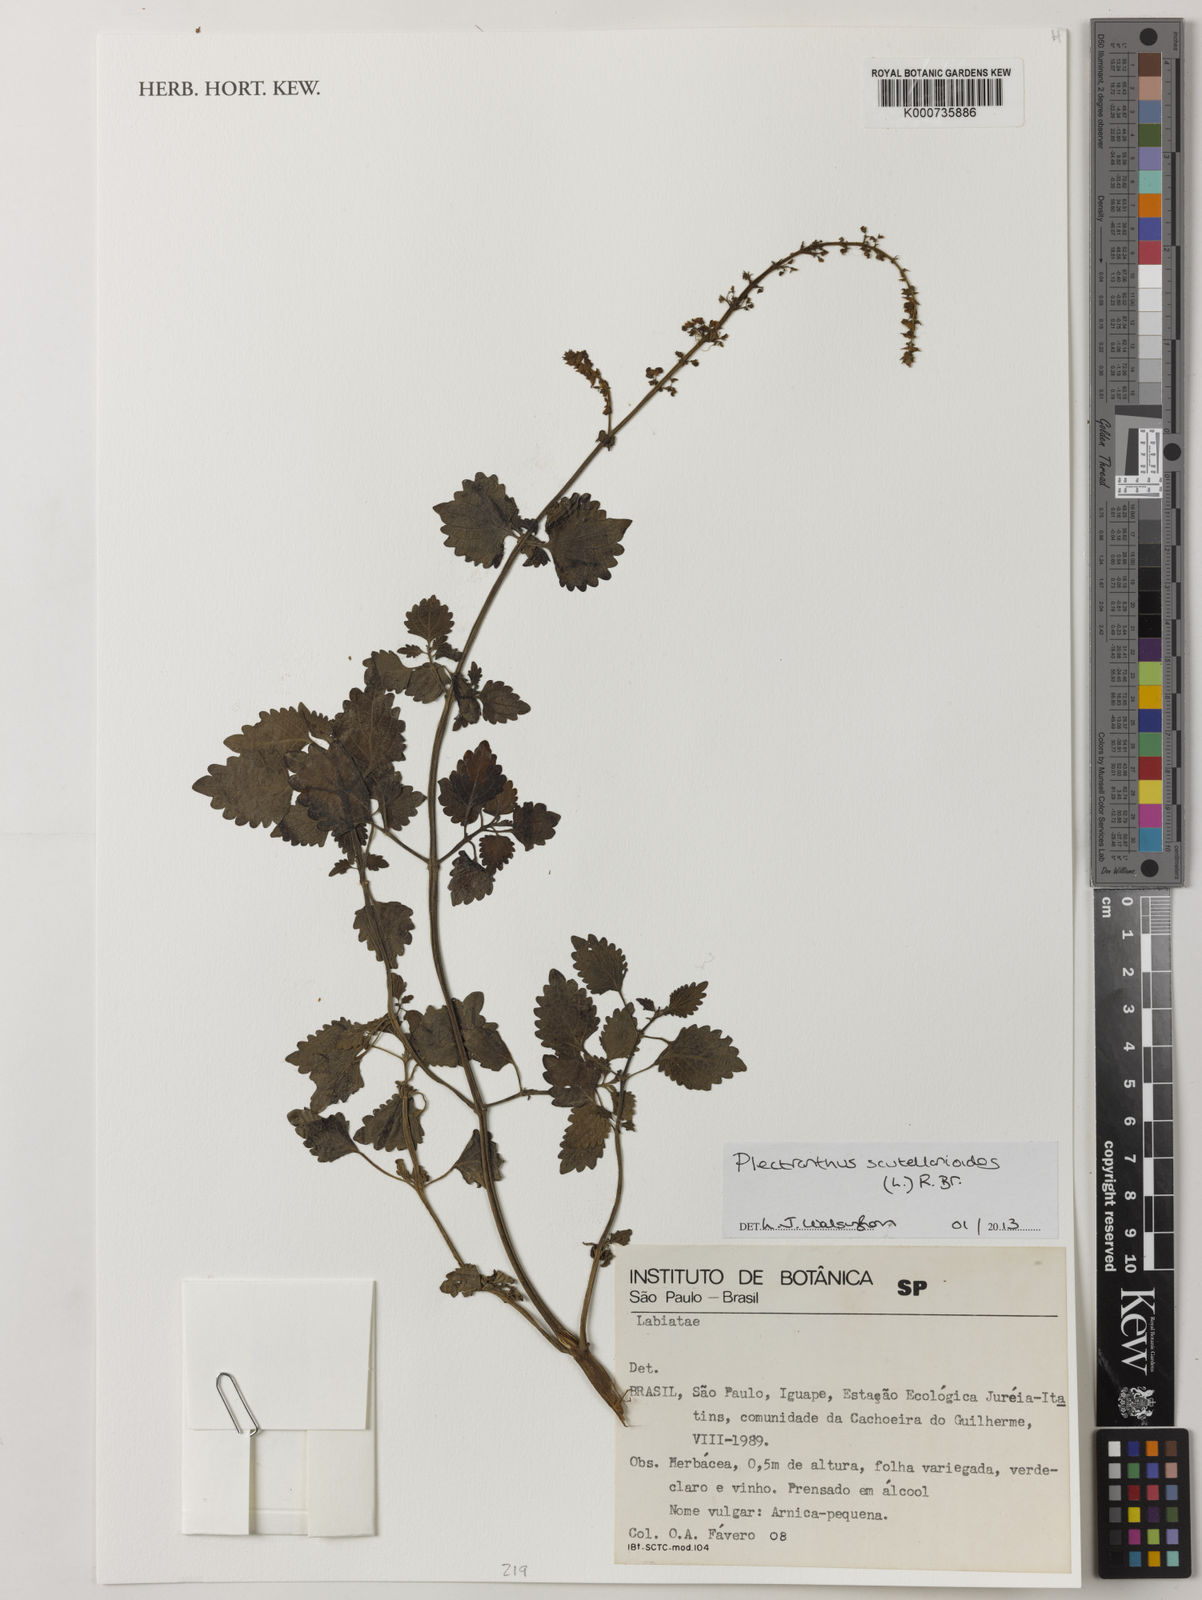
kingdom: Plantae
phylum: Tracheophyta
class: Magnoliopsida
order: Lamiales
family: Lamiaceae
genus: Coleus
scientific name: Coleus scutellarioides
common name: Coleus
